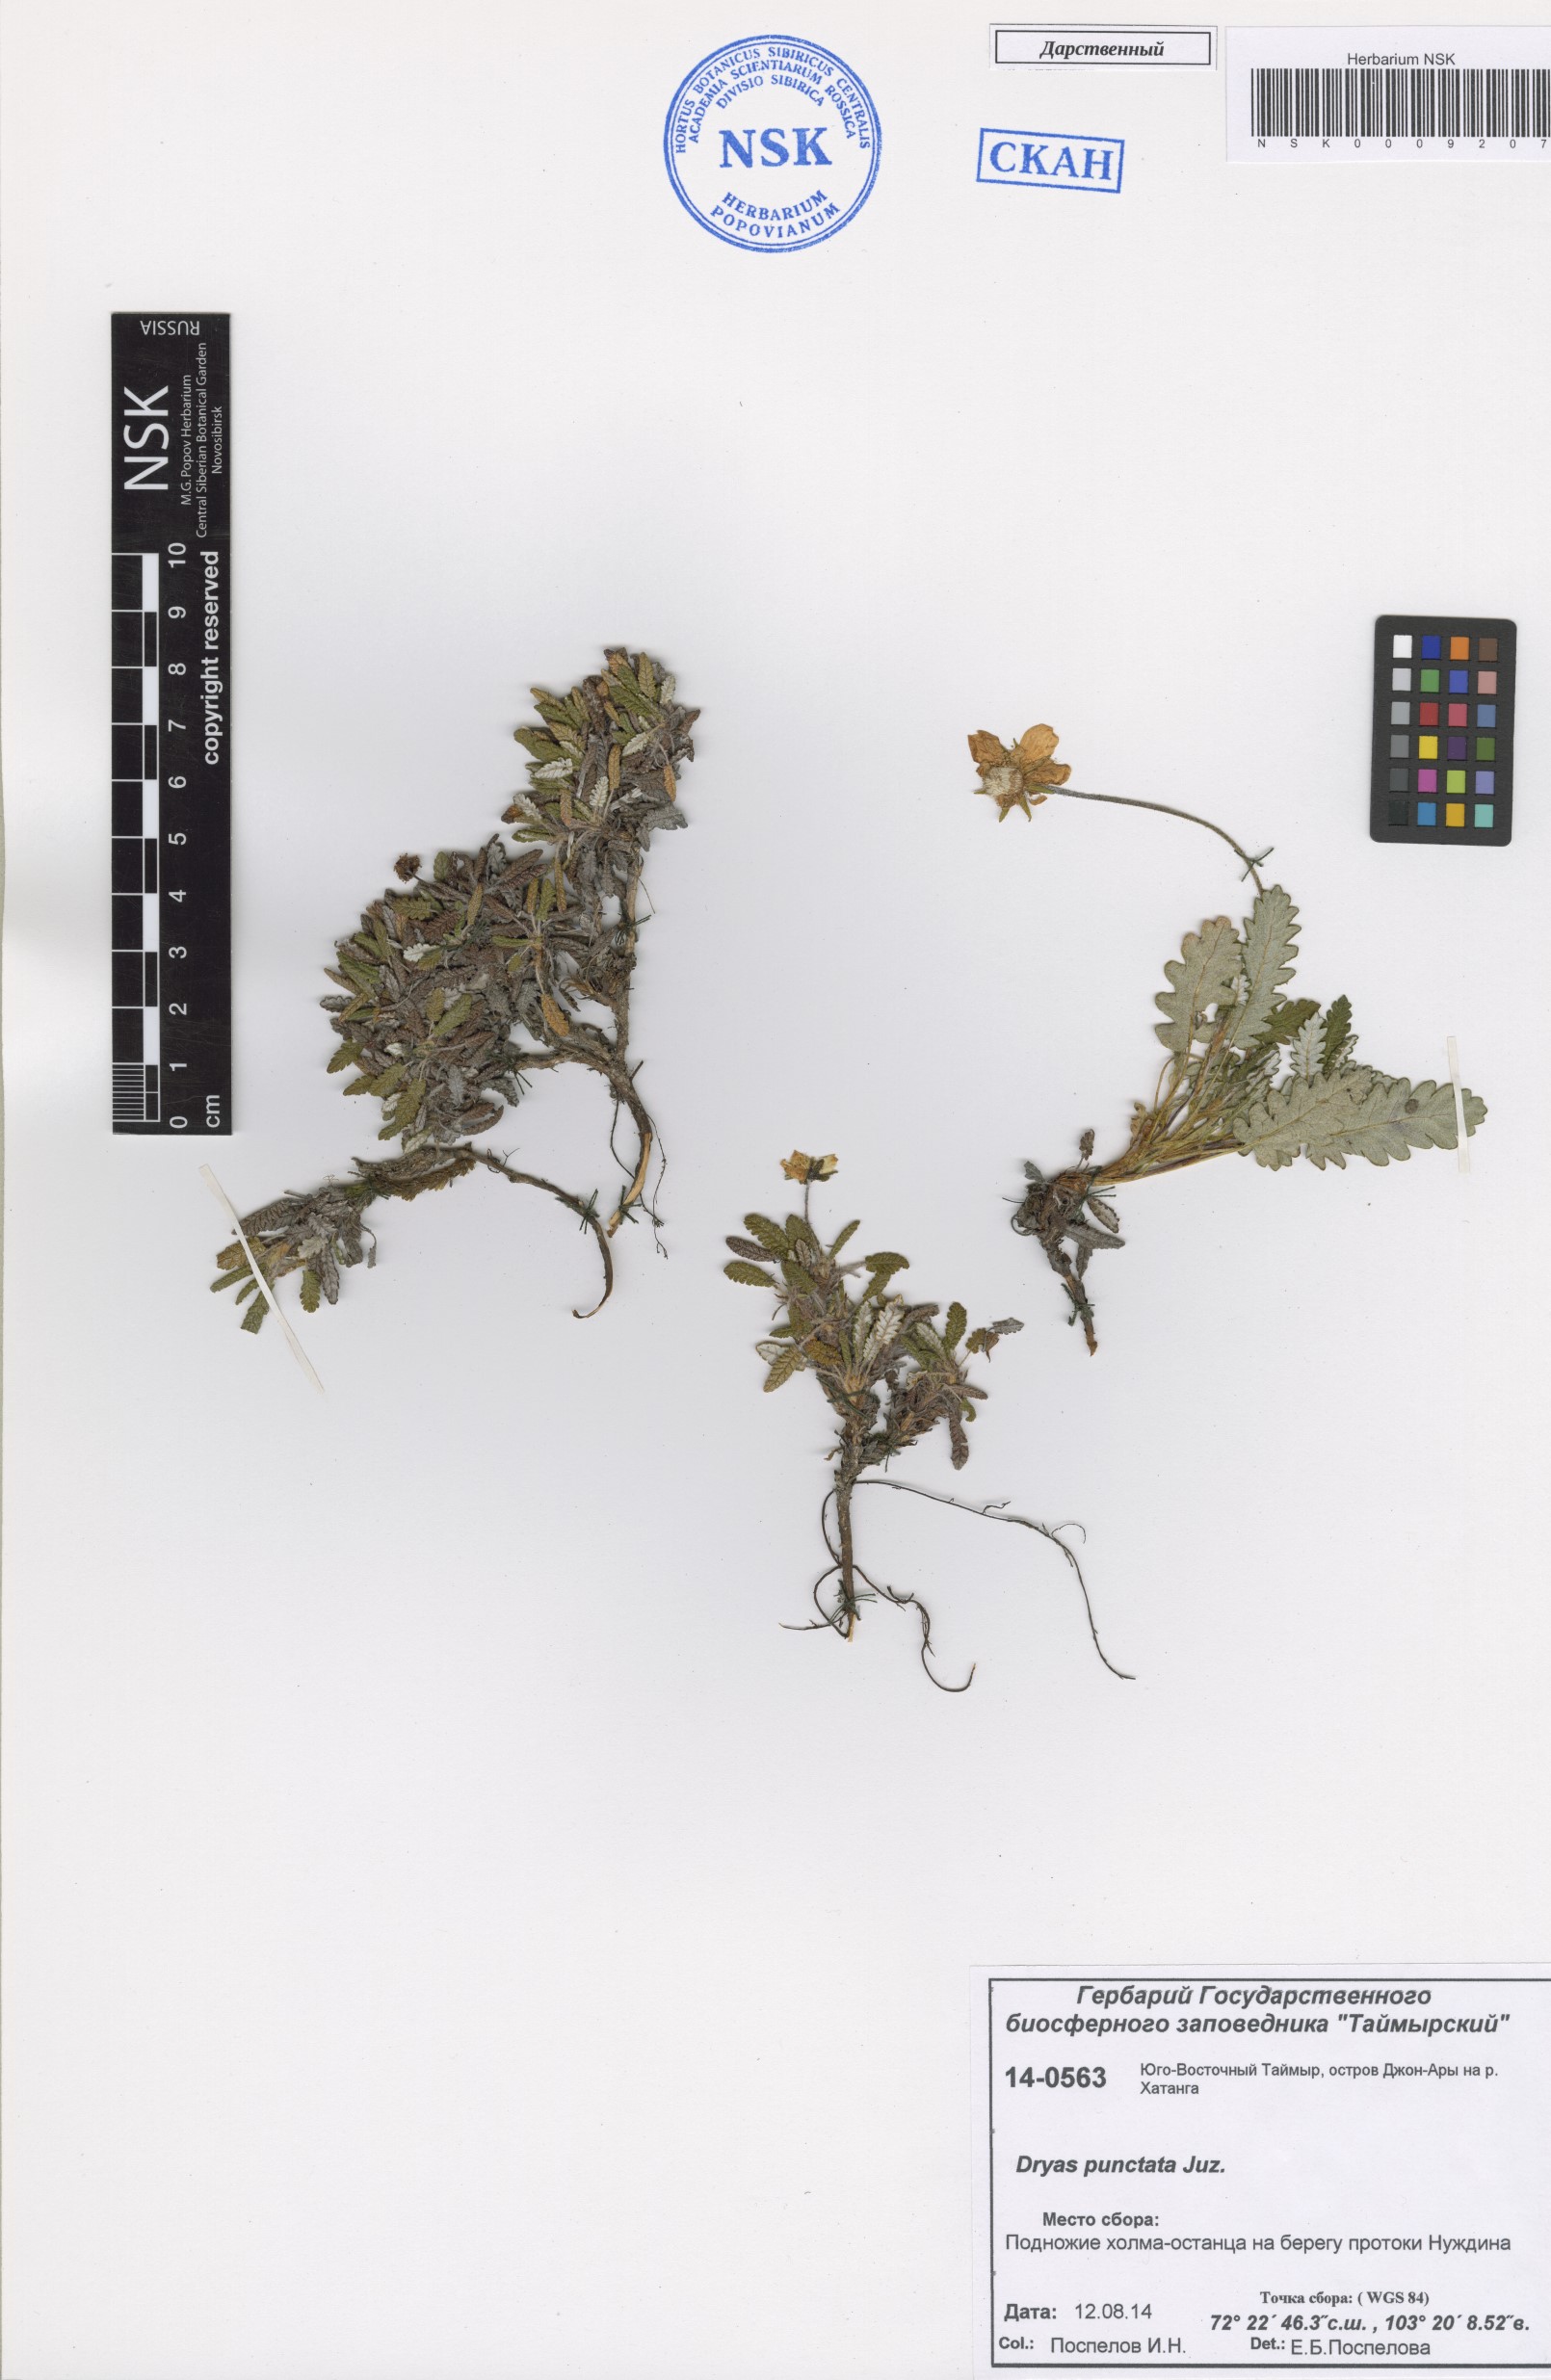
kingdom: Plantae
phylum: Tracheophyta
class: Magnoliopsida
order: Rosales
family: Rosaceae
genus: Dryas
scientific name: Dryas octopetala
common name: Eight-petal mountain-avens
